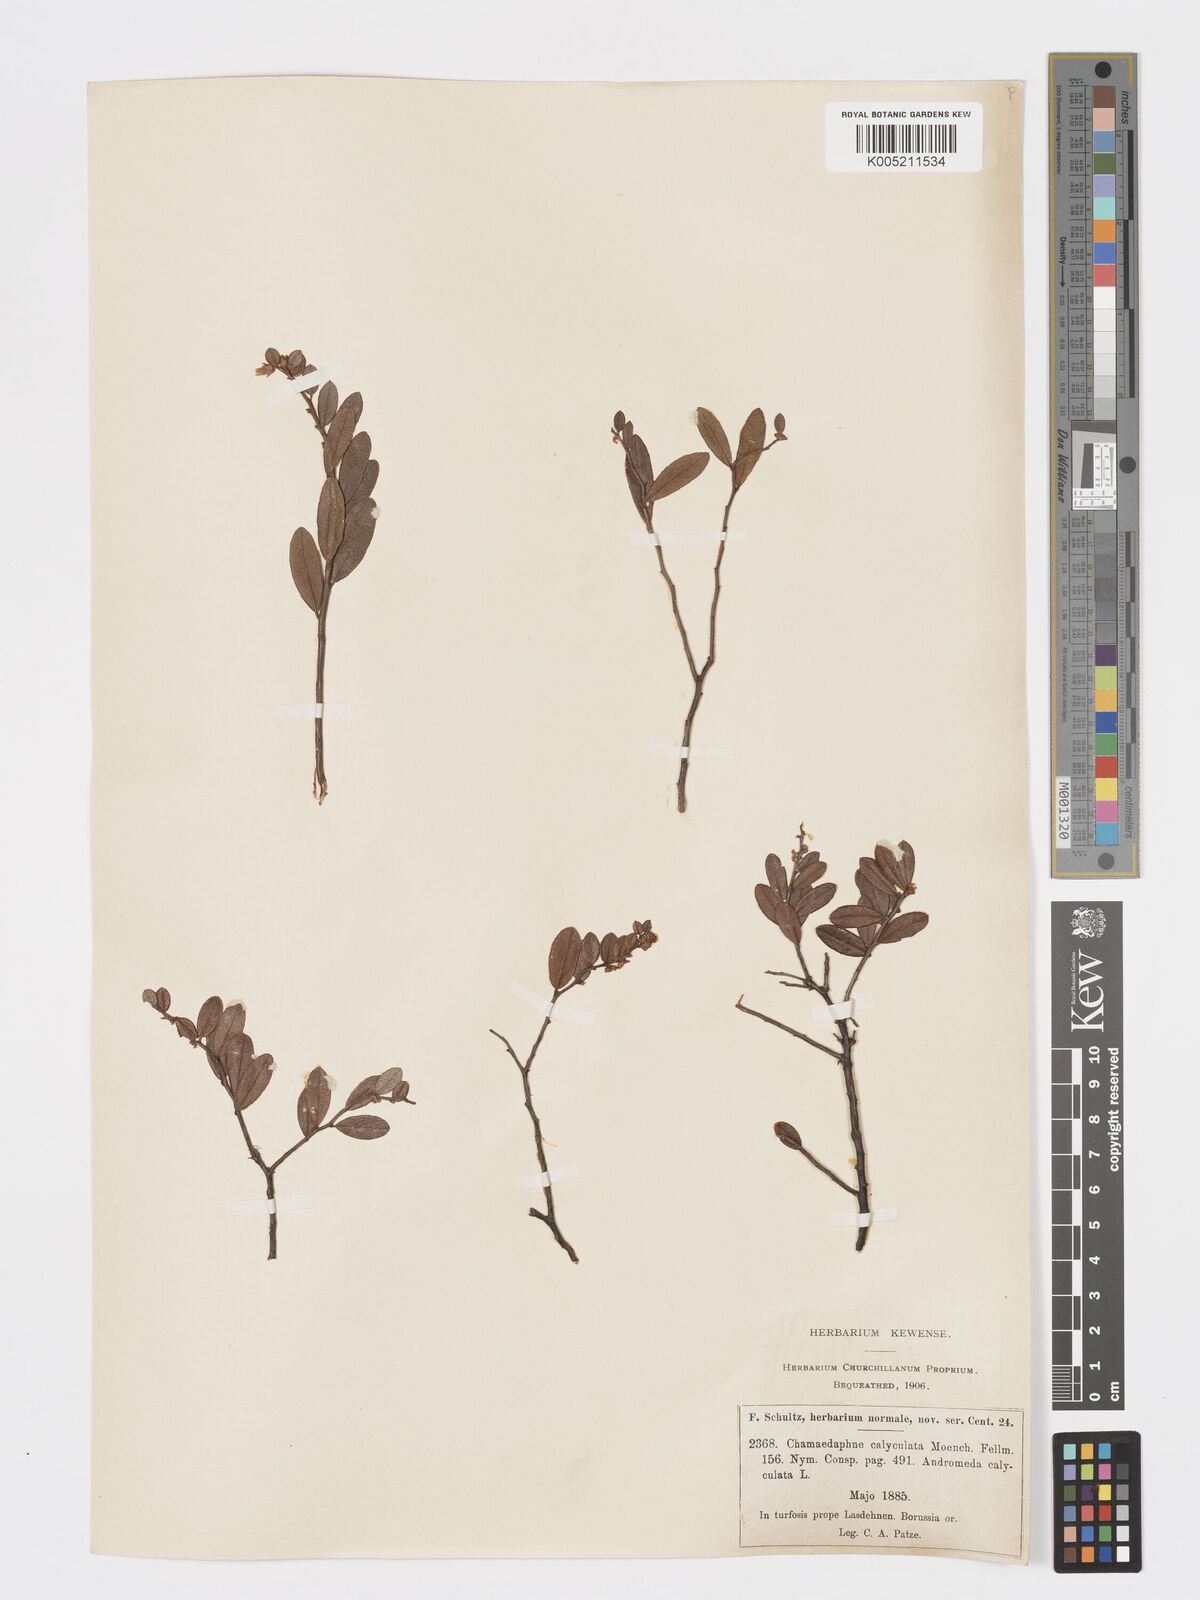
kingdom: Plantae
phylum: Tracheophyta
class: Magnoliopsida
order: Ericales
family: Ericaceae
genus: Chamaedaphne
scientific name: Chamaedaphne calyculata
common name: Leatherleaf
